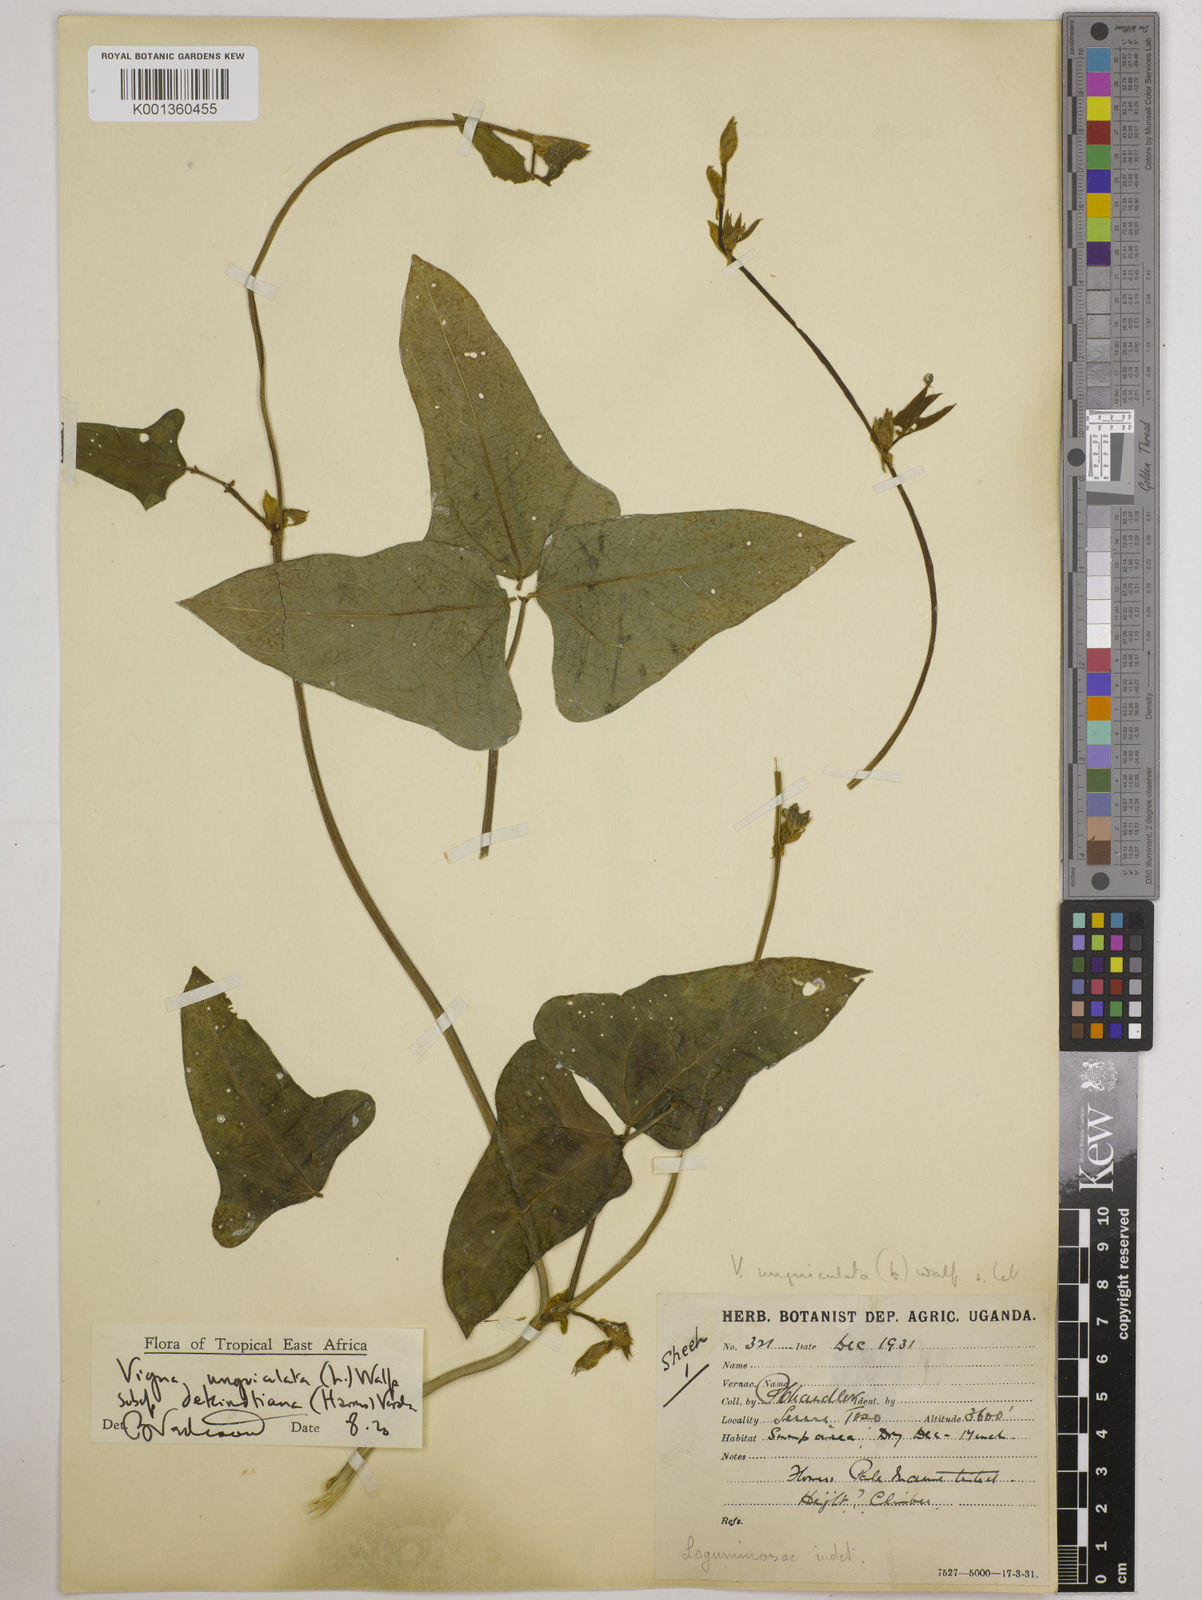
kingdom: Plantae
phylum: Tracheophyta
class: Magnoliopsida
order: Fabales
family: Fabaceae
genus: Vigna
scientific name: Vigna unguiculata
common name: Cowpea
